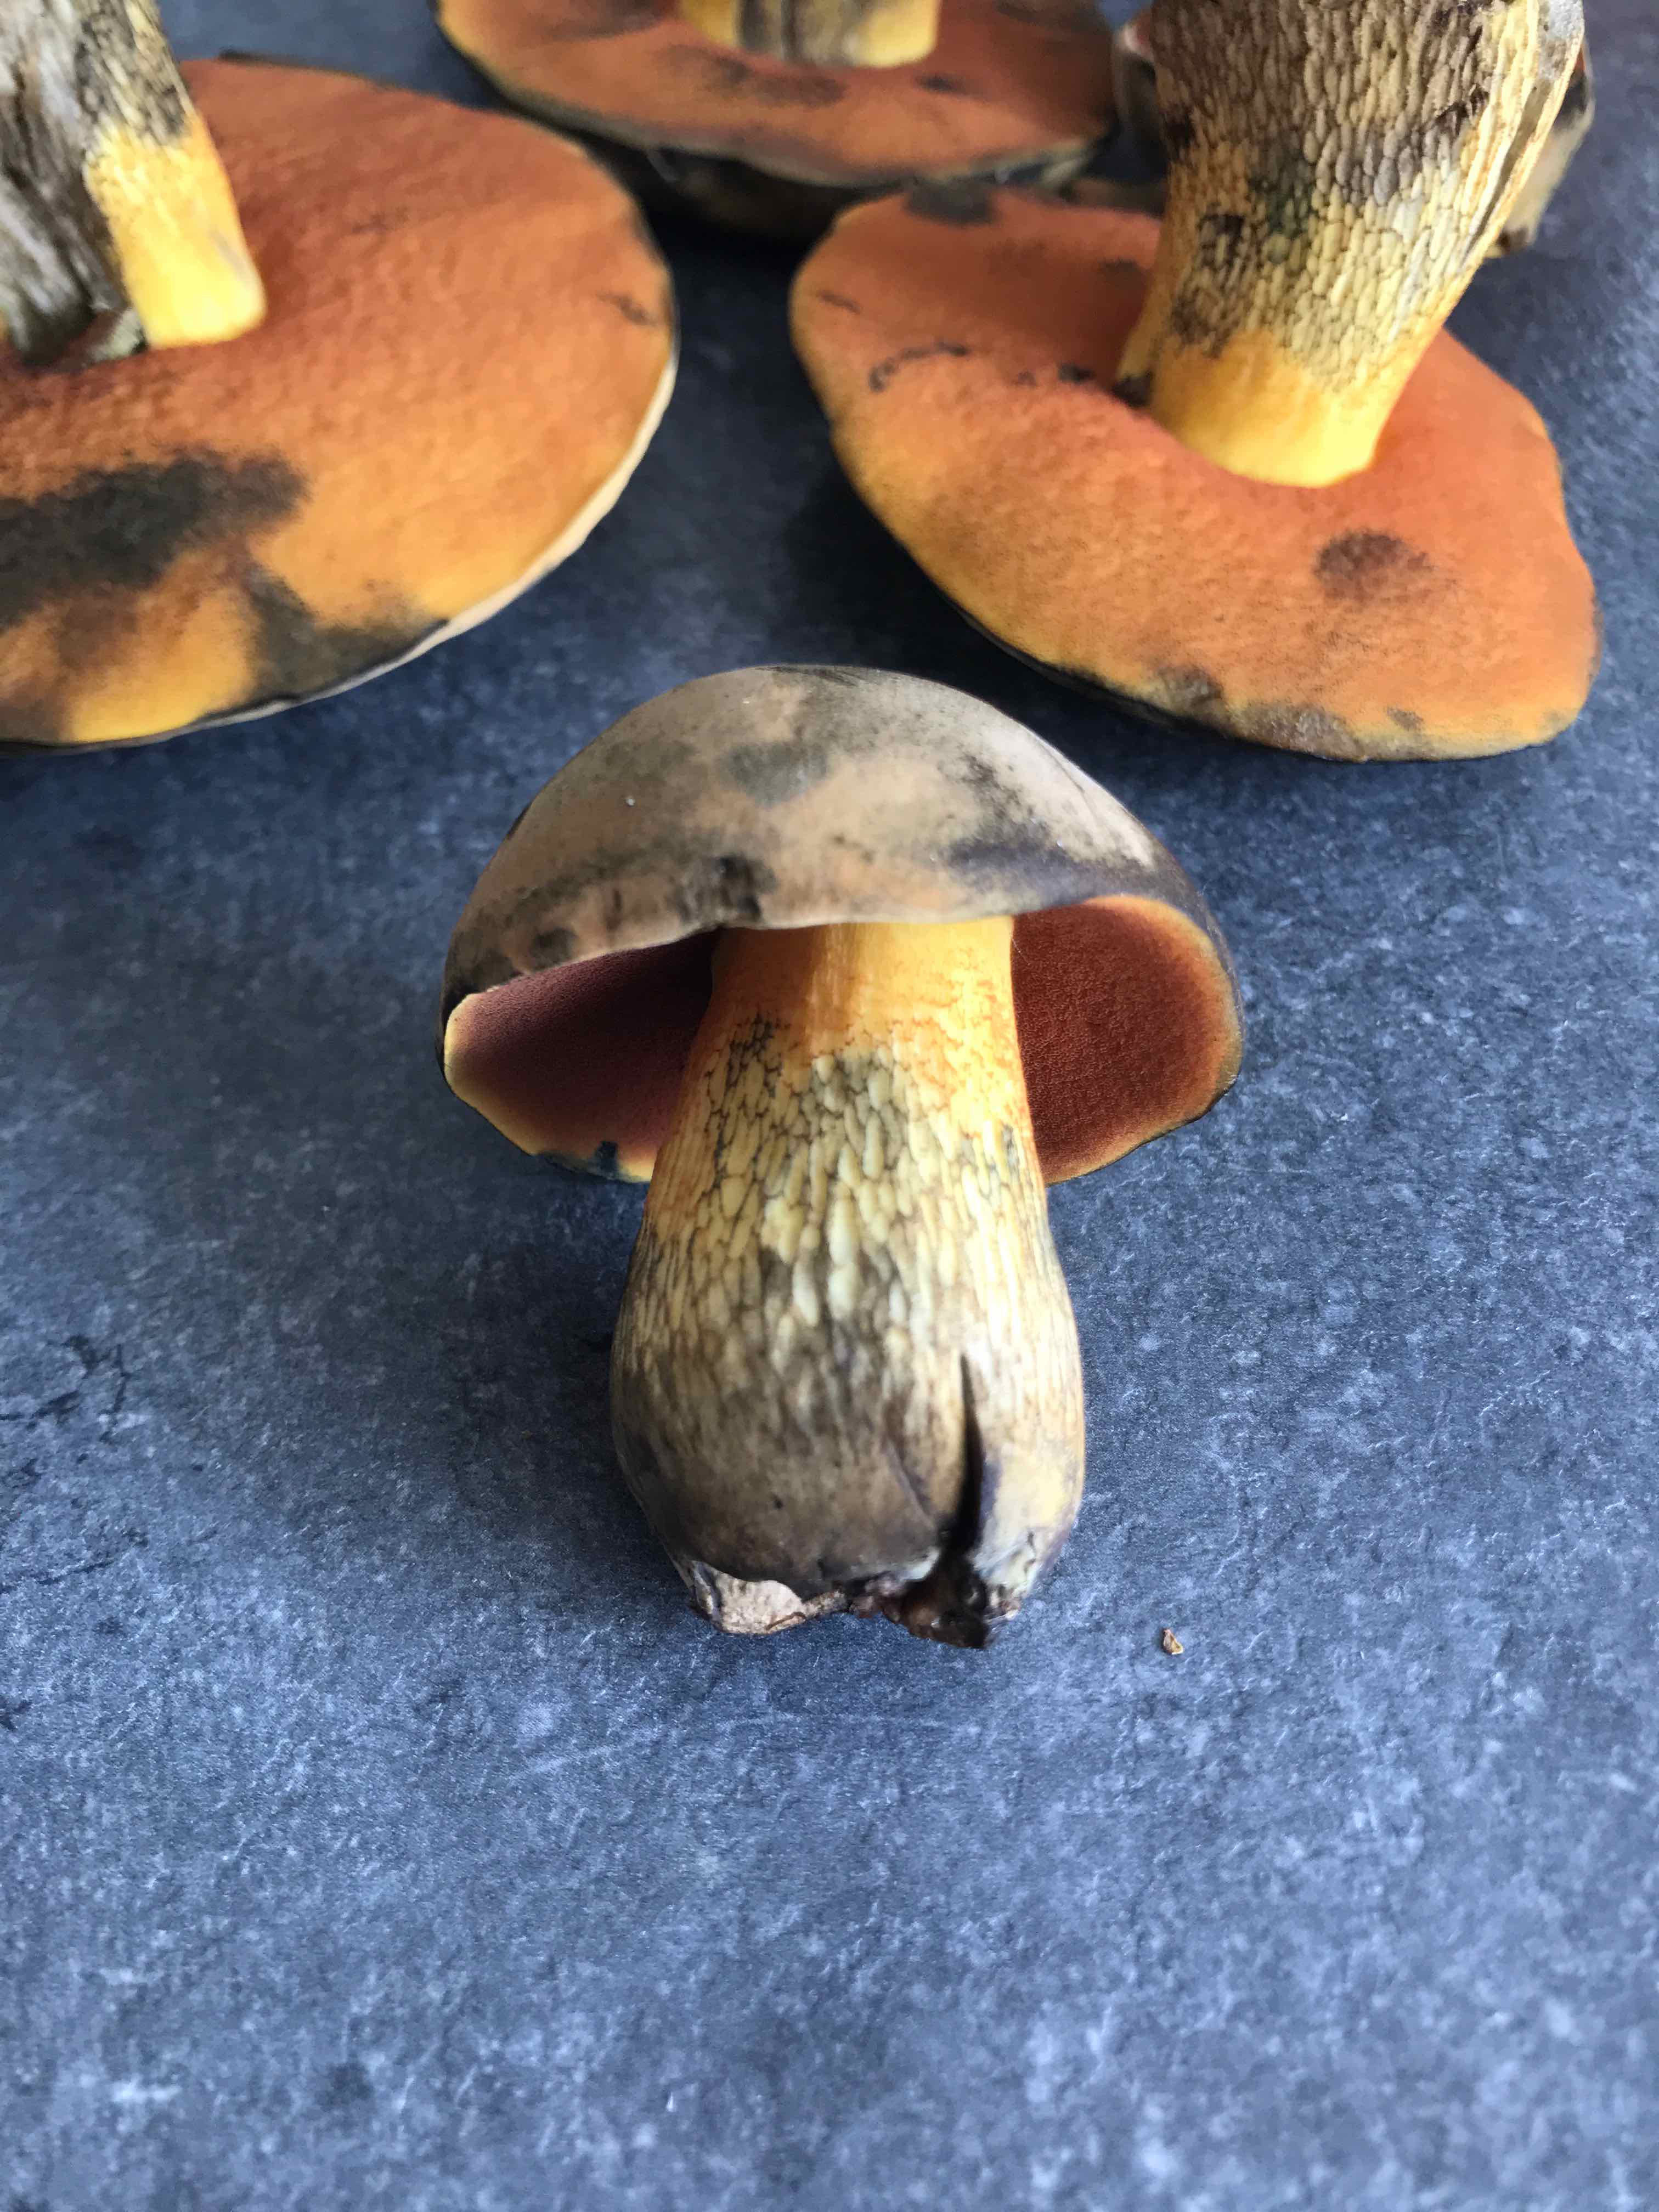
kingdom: Fungi
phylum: Basidiomycota
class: Agaricomycetes
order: Boletales
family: Boletaceae
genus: Suillellus
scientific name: Suillellus luridus
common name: netstokket indigorørhat
